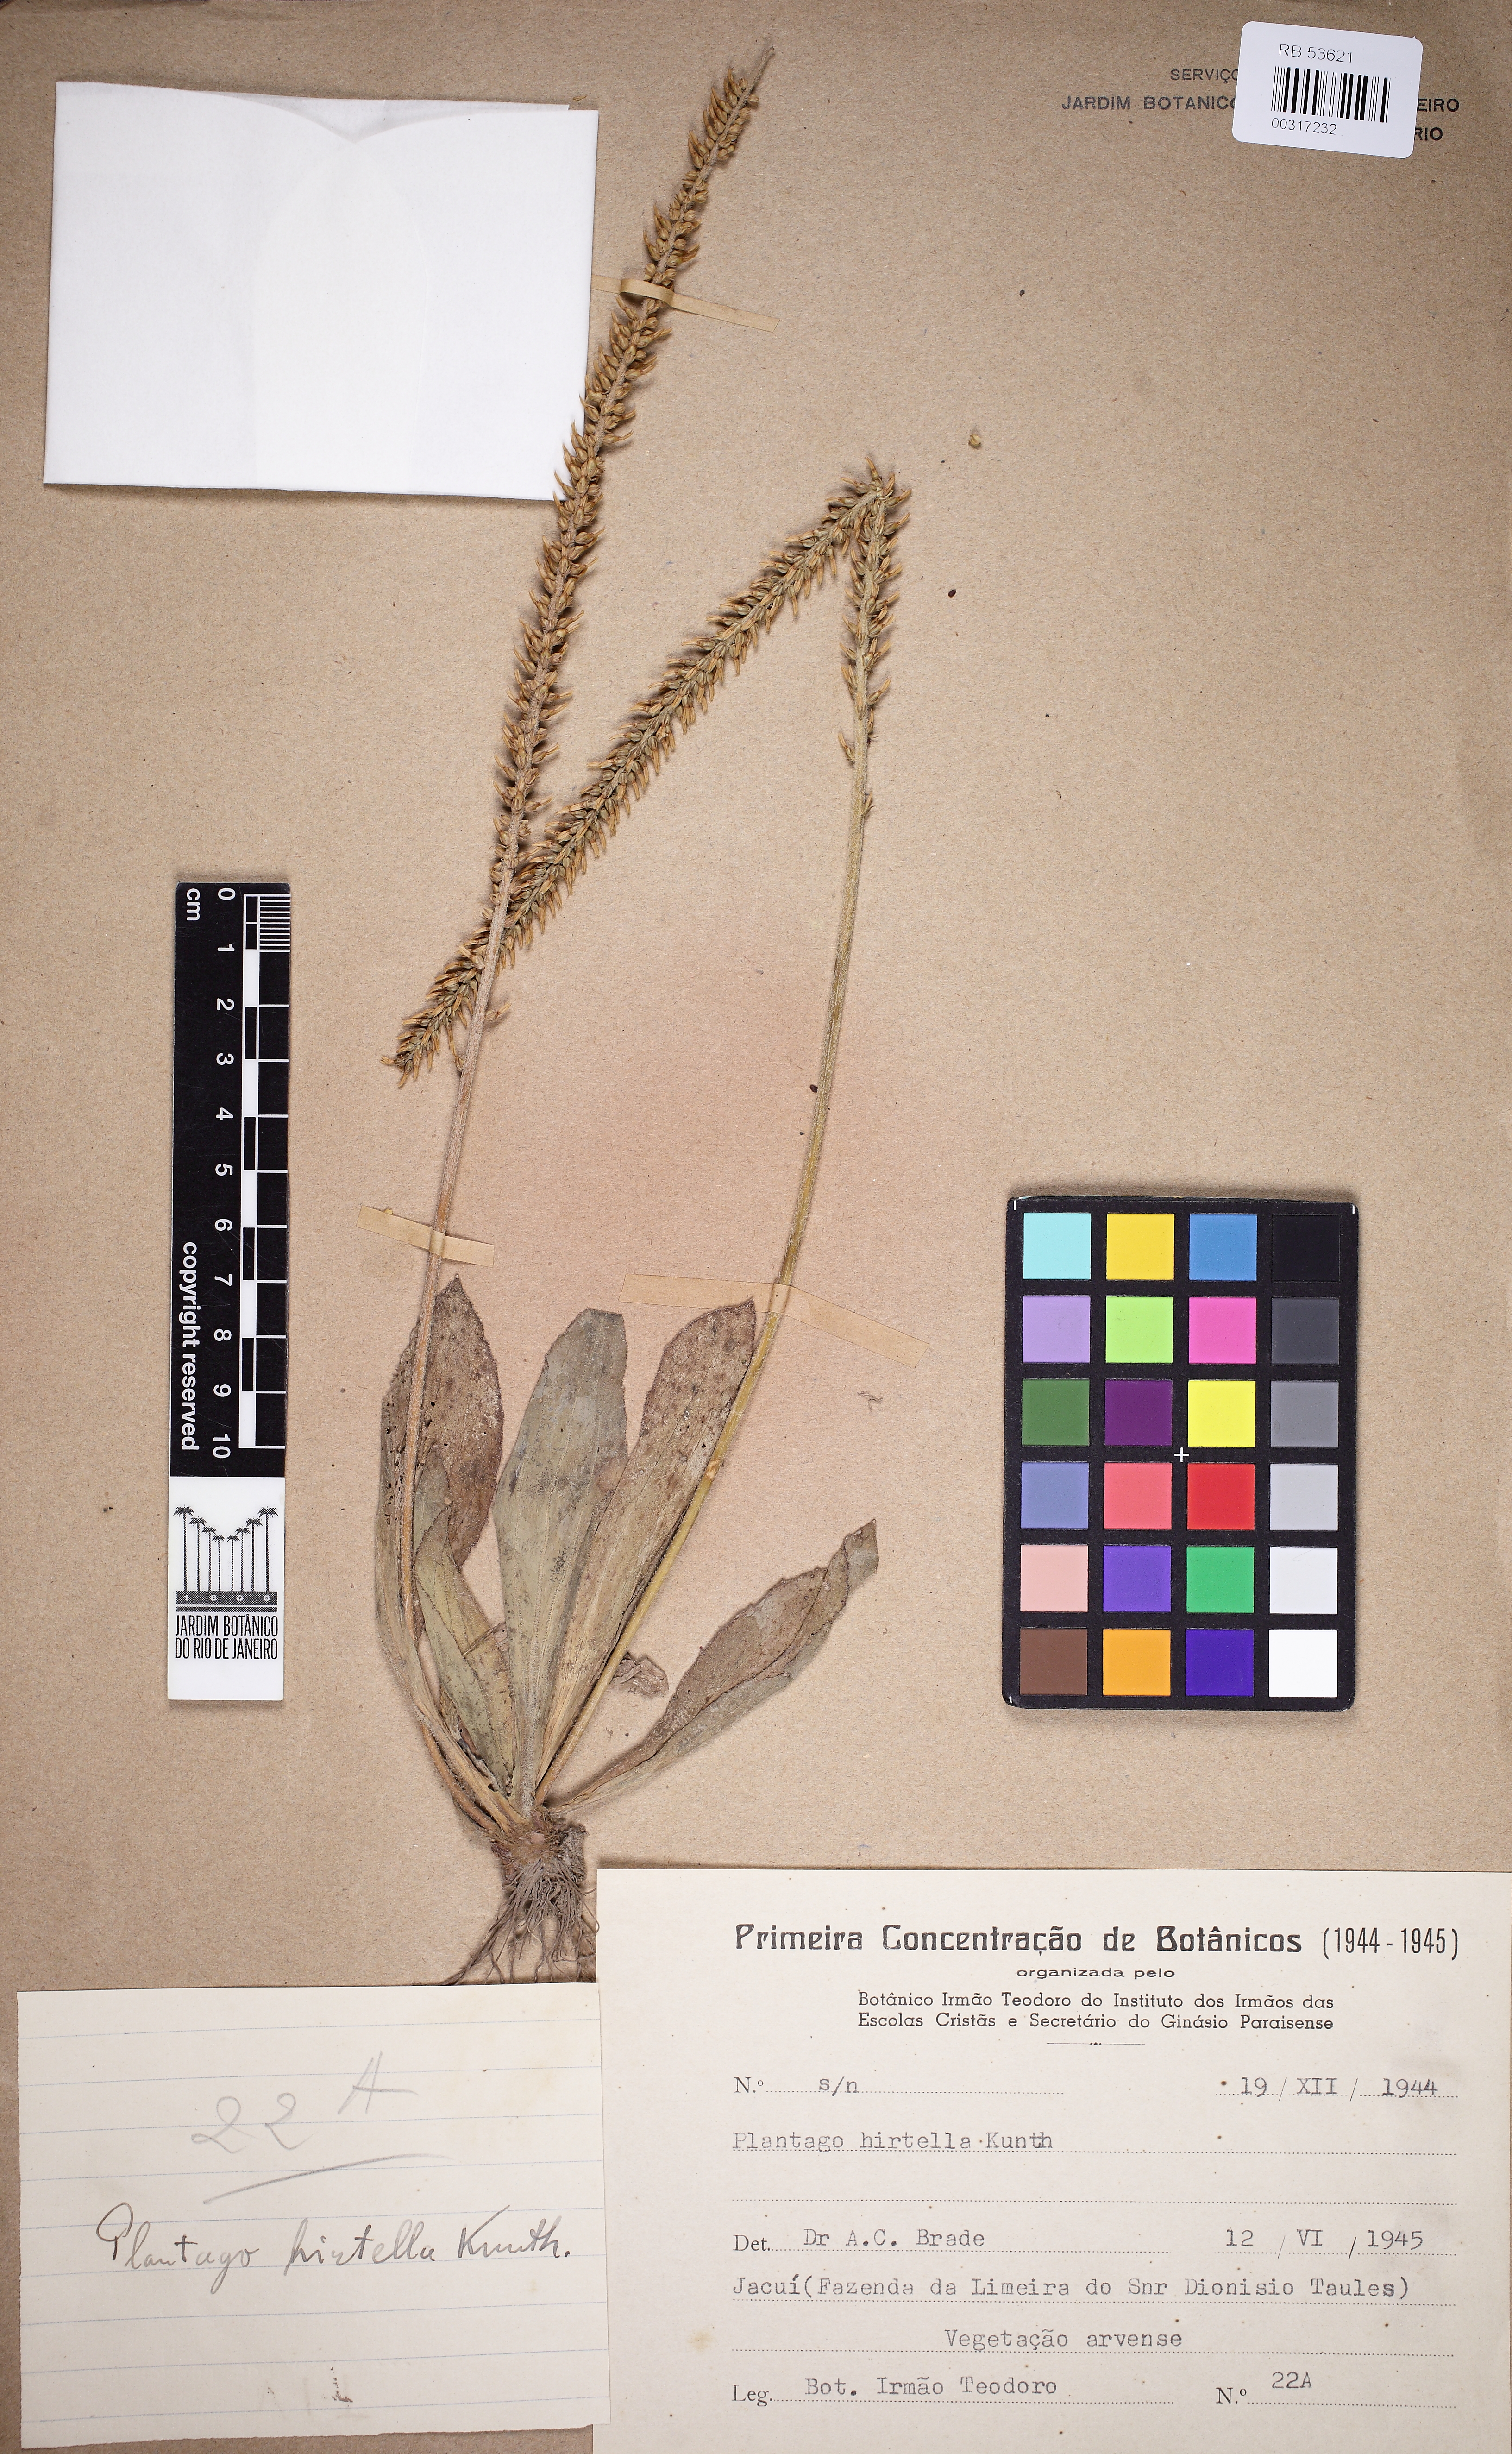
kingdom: Plantae
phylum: Tracheophyta
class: Magnoliopsida
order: Lamiales
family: Plantaginaceae
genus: Plantago
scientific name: Plantago australis
